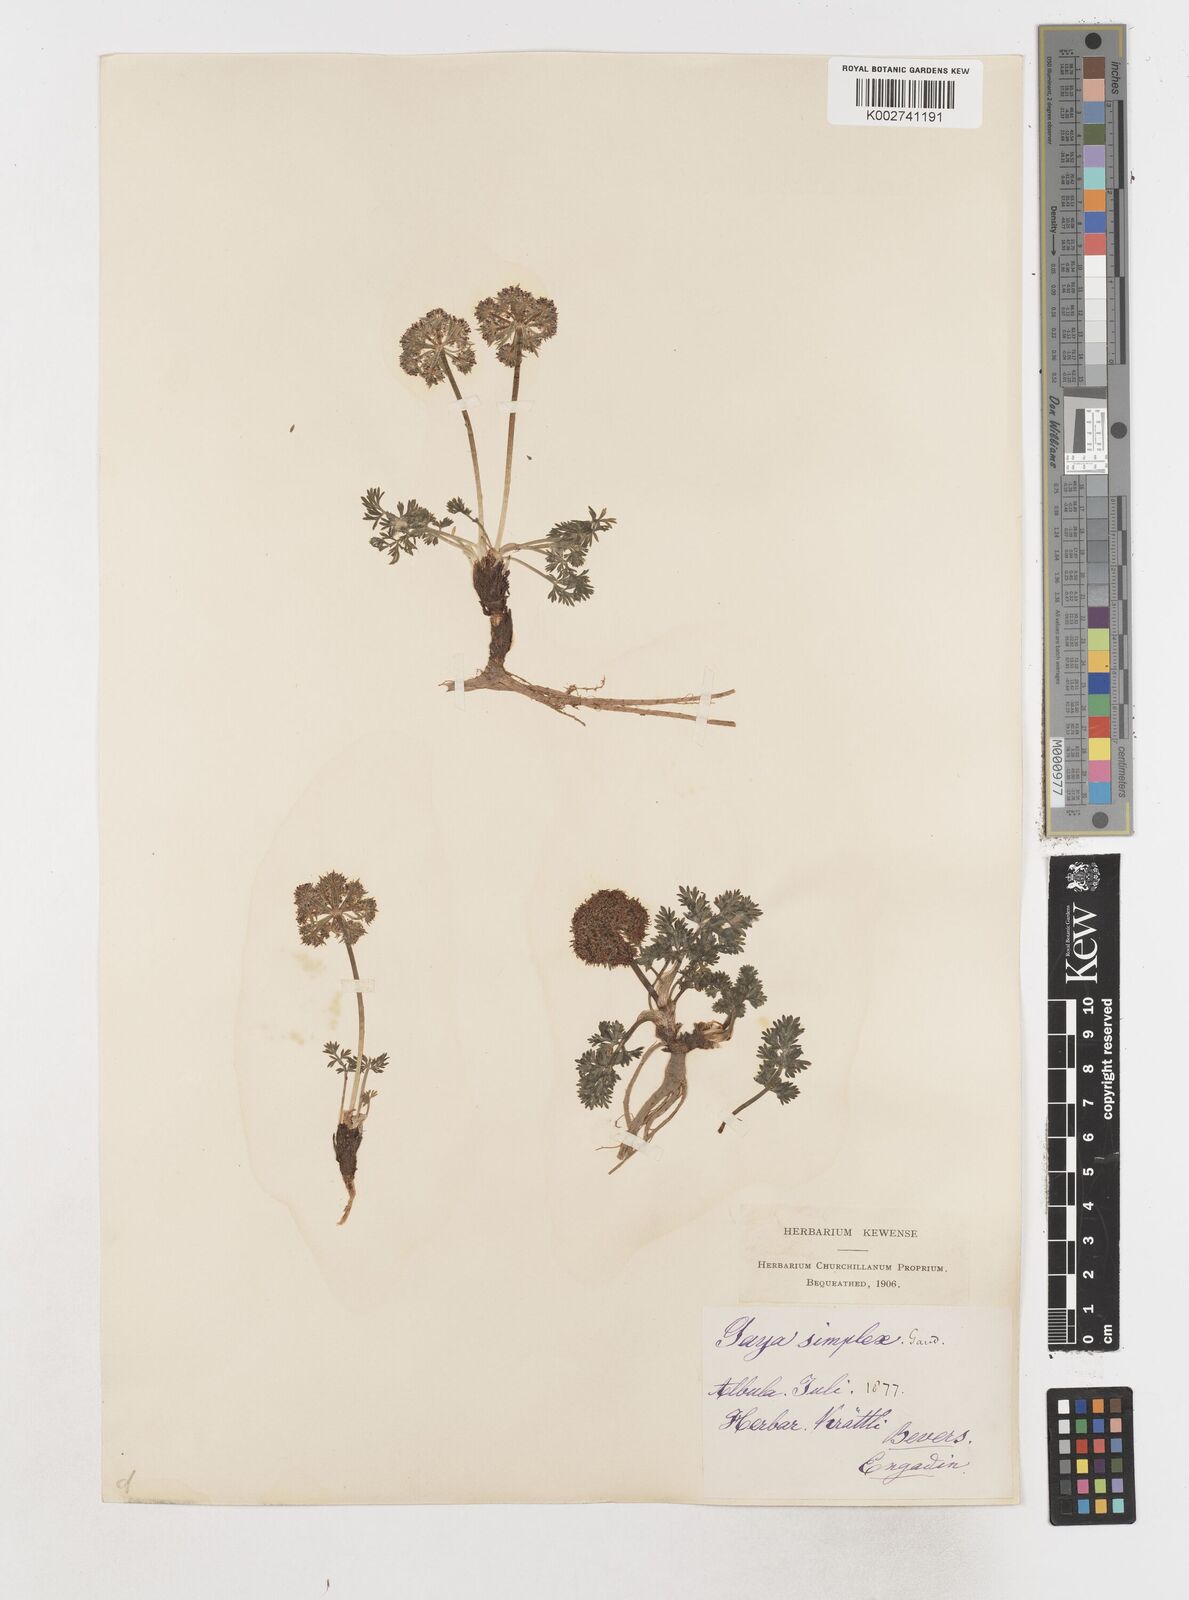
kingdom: Plantae
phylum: Tracheophyta
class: Magnoliopsida
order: Apiales
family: Apiaceae
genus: Pachypleurum
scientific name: Pachypleurum mutellinoides
